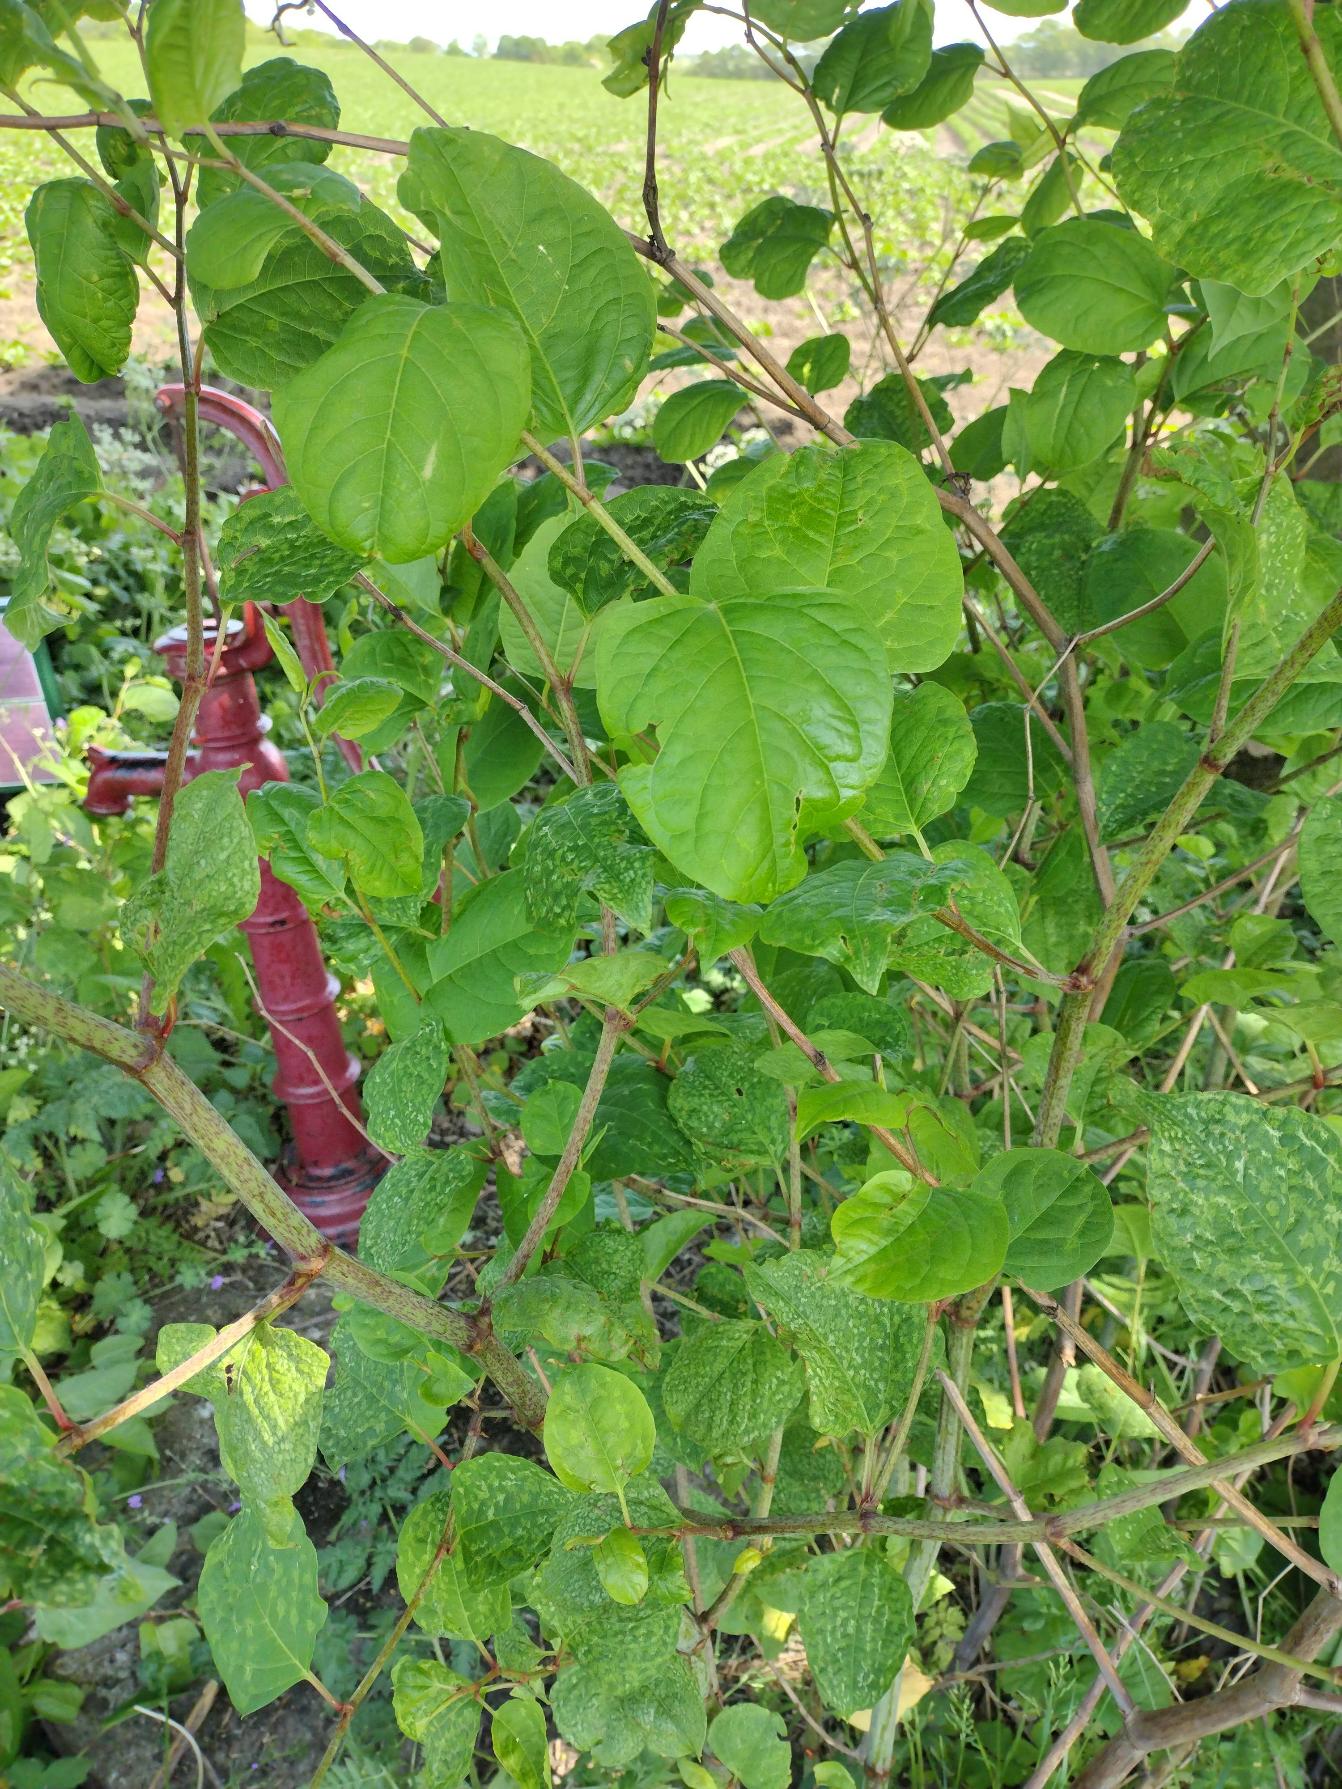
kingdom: Plantae
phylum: Tracheophyta
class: Magnoliopsida
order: Caryophyllales
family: Polygonaceae
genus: Reynoutria
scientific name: Reynoutria japonica
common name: Japan-pileurt
